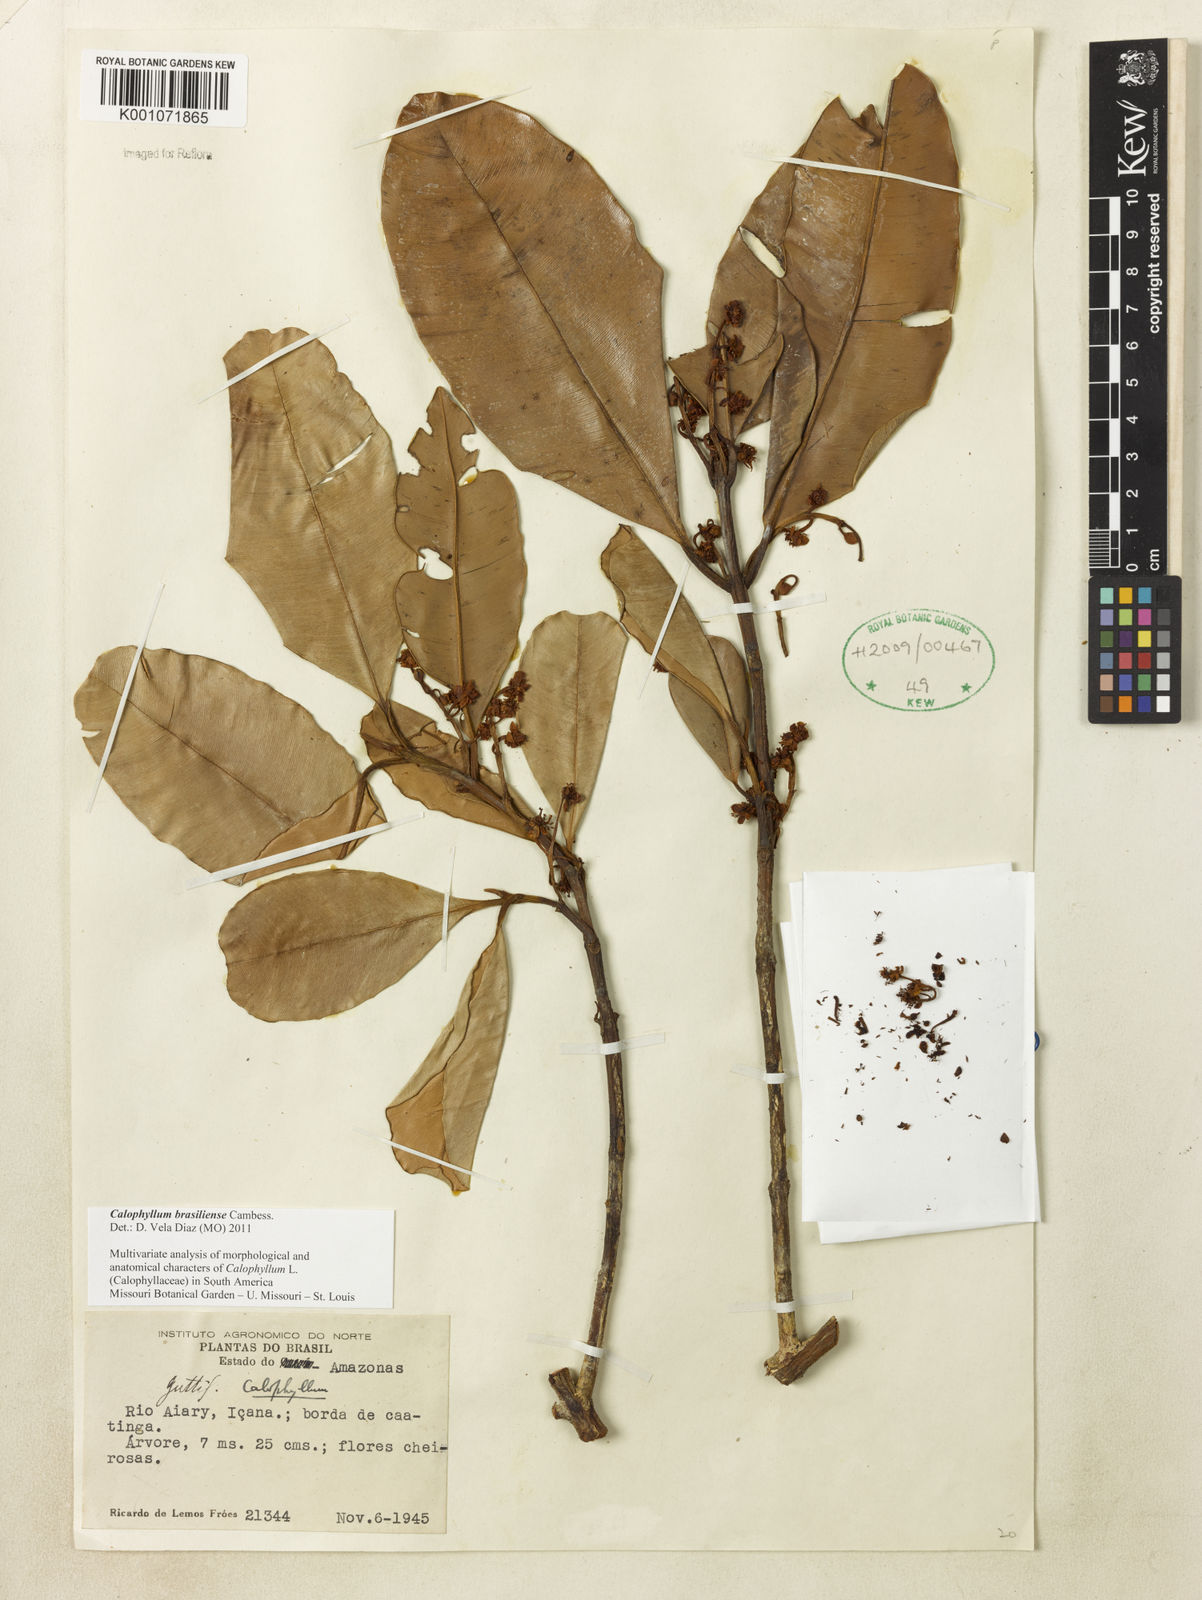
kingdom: Plantae
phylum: Tracheophyta
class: Magnoliopsida
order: Malpighiales
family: Calophyllaceae
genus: Calophyllum
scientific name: Calophyllum brasiliense
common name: Santa maria
